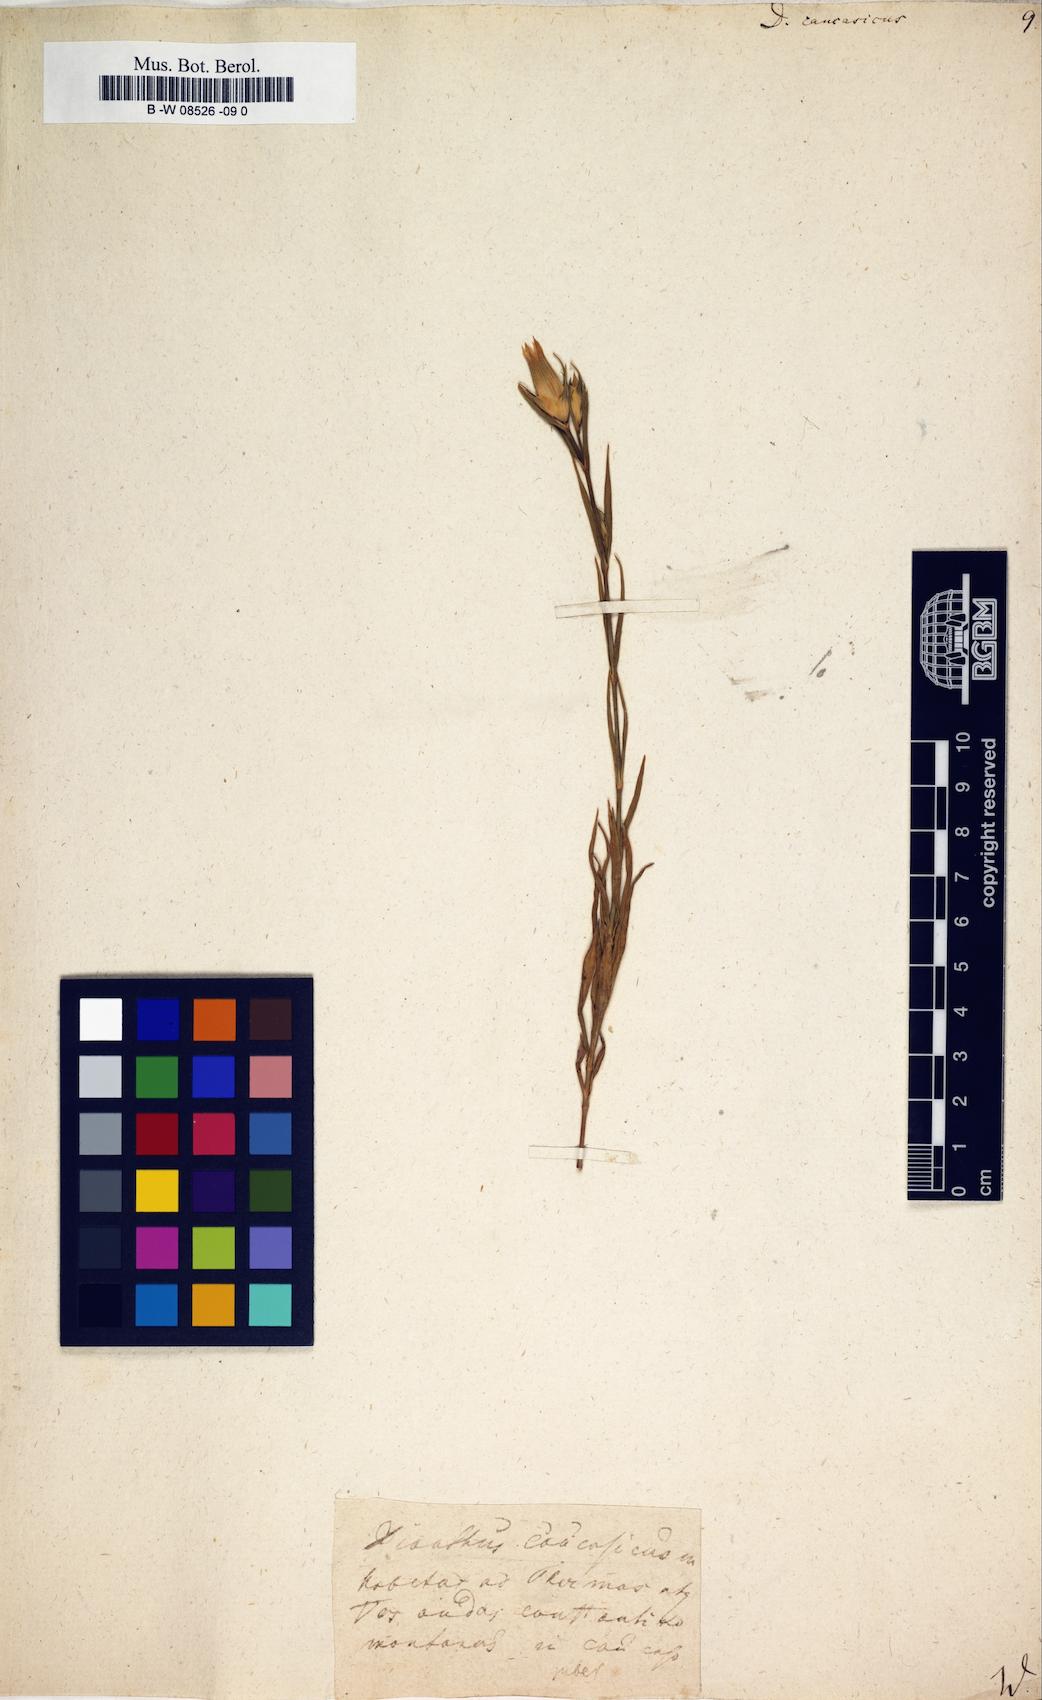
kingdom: Plantae
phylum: Tracheophyta
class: Magnoliopsida
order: Caryophyllales
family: Caryophyllaceae
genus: Dianthus
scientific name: Dianthus
